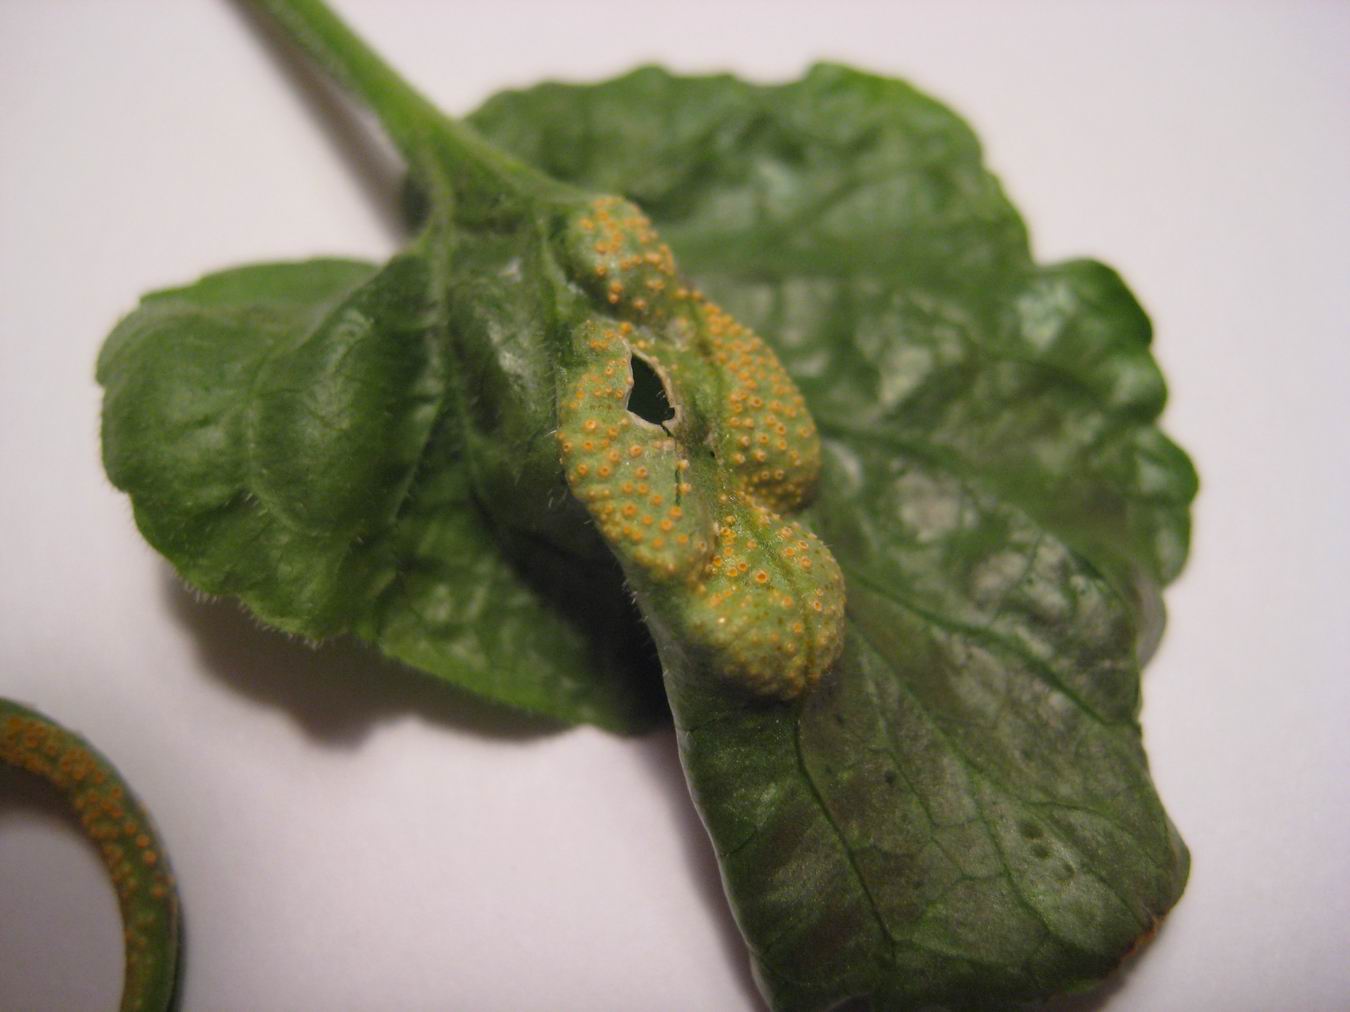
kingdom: Fungi
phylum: Basidiomycota
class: Pucciniomycetes
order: Pucciniales
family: Pucciniaceae
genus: Puccinia
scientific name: Puccinia violae
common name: viol-tvecellerust
